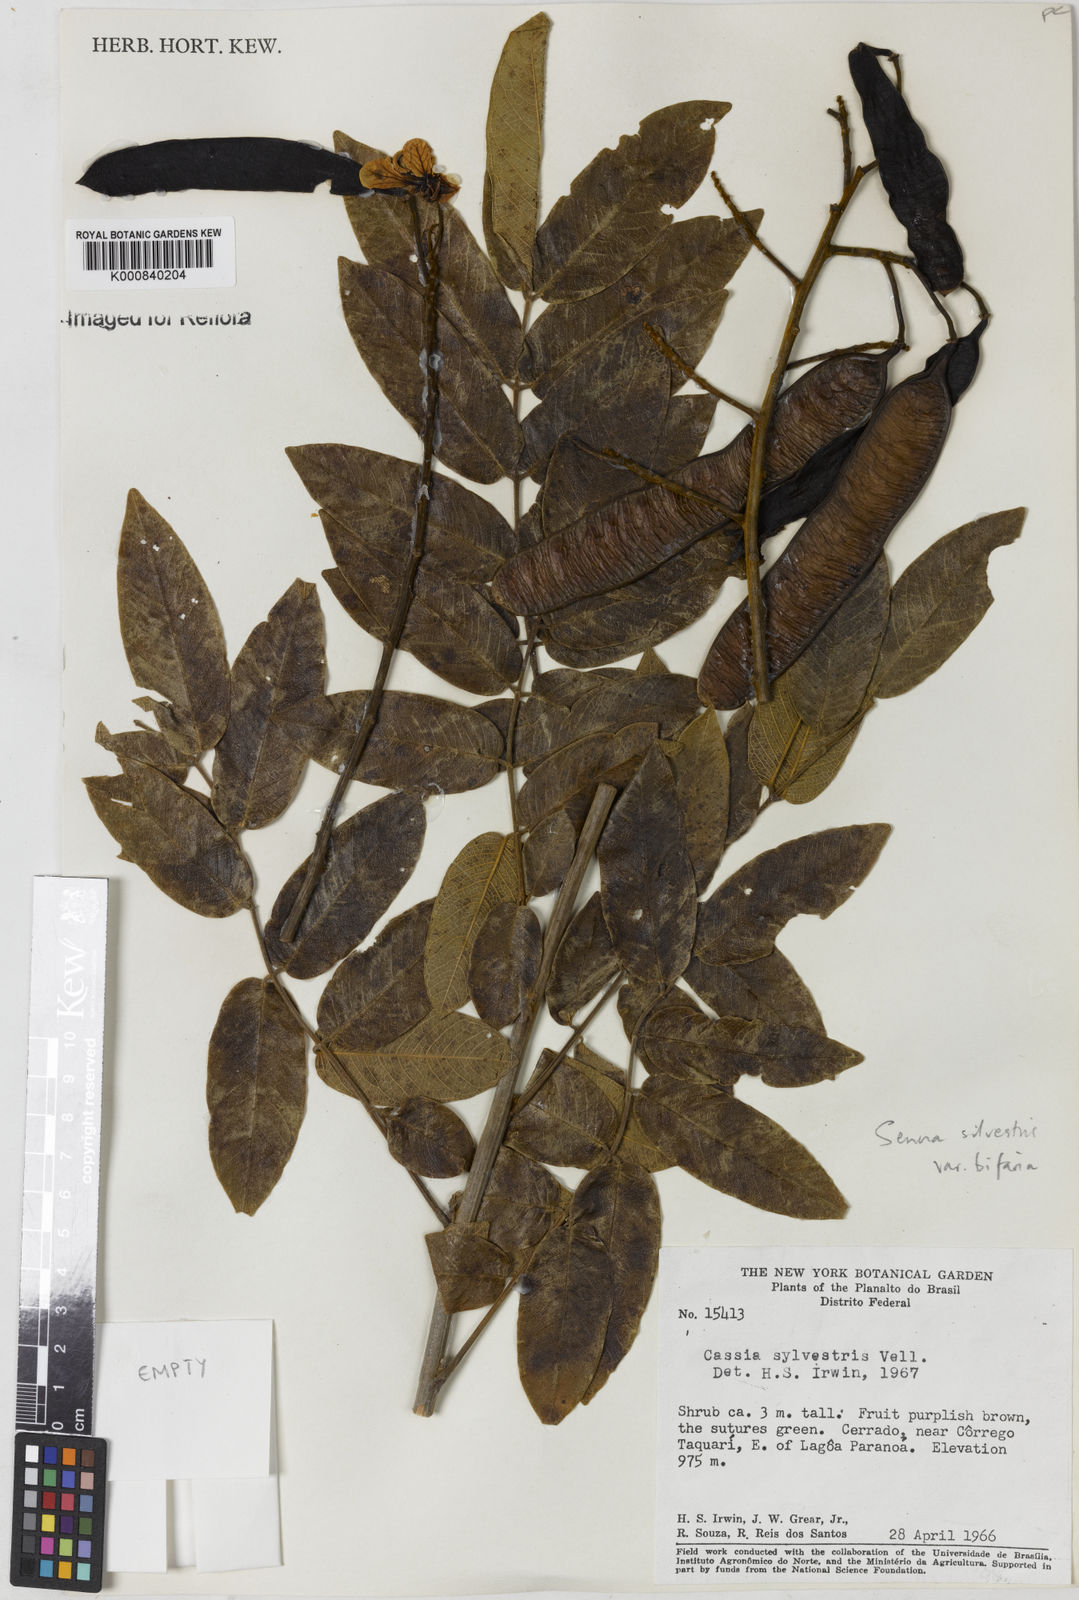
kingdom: Plantae
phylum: Tracheophyta
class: Magnoliopsida
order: Fabales
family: Fabaceae
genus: Senna
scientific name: Senna silvestris
